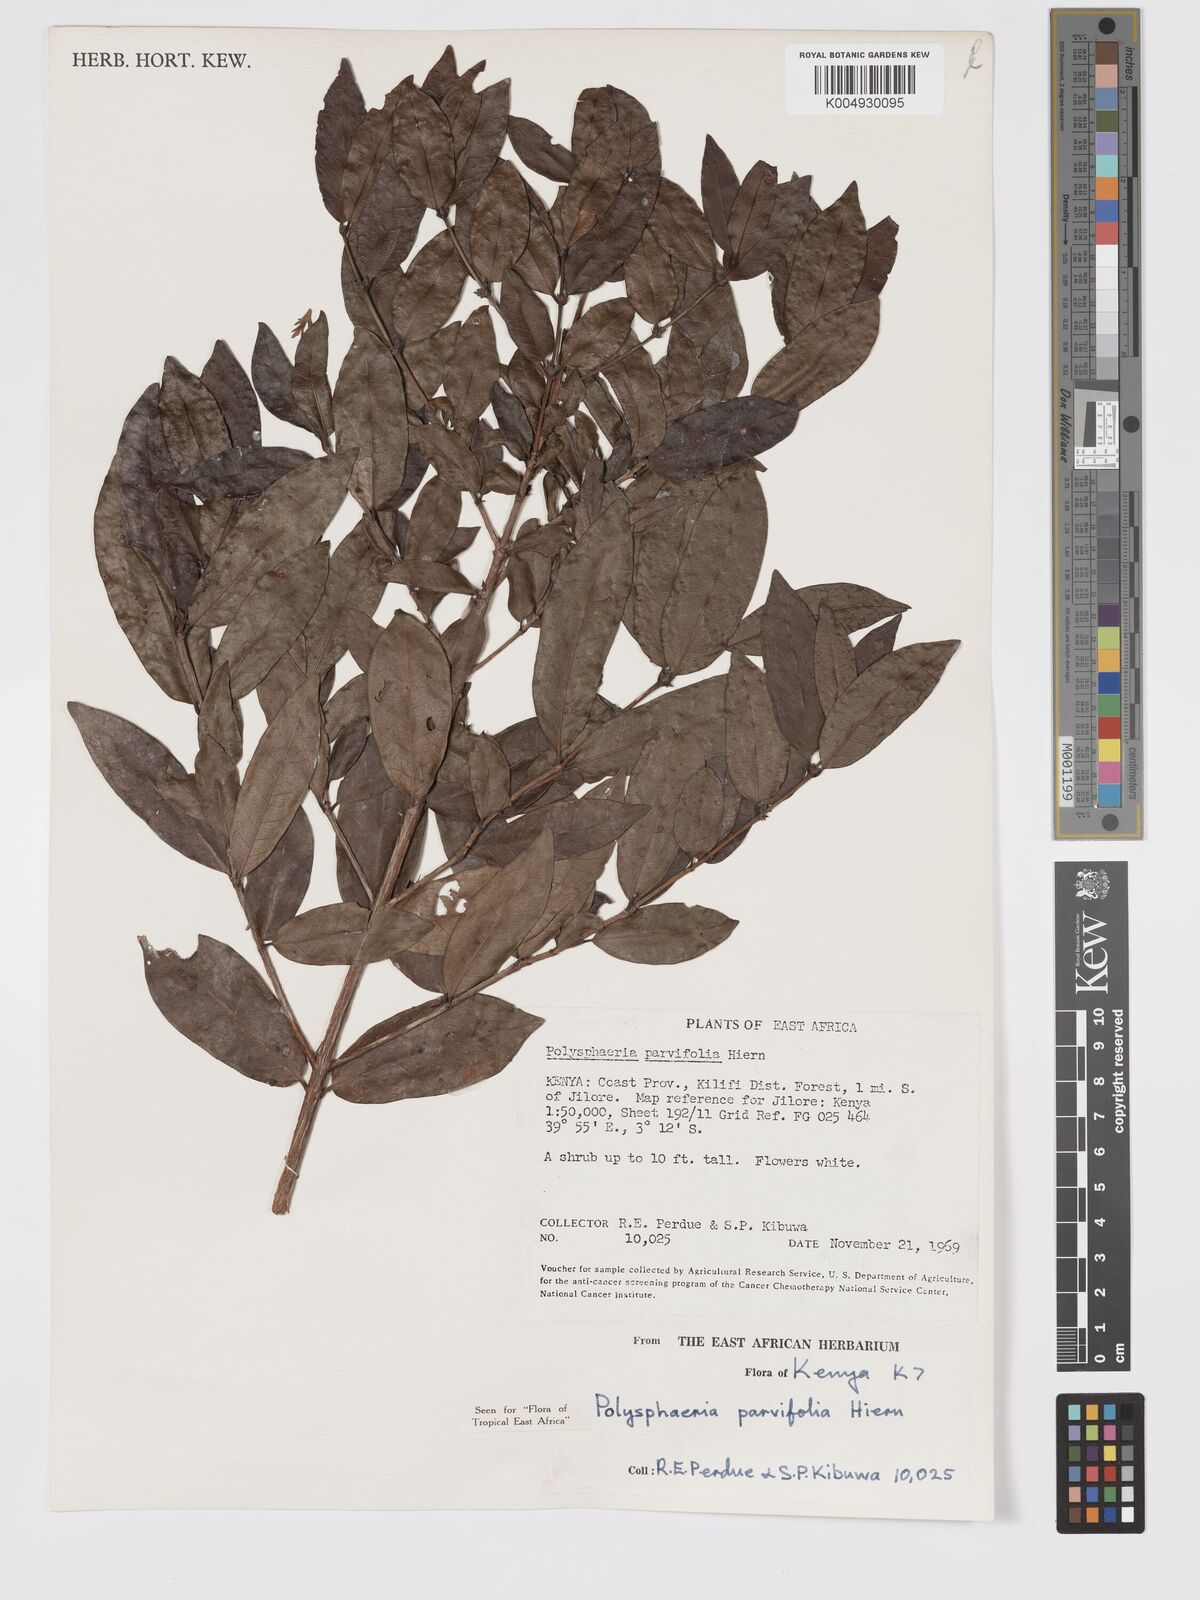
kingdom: Plantae
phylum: Tracheophyta
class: Magnoliopsida
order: Gentianales
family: Rubiaceae
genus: Eumachia
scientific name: Eumachia parviflora
